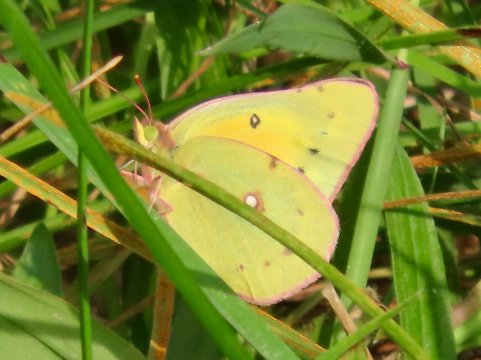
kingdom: Animalia
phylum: Arthropoda
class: Insecta
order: Lepidoptera
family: Pieridae
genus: Colias
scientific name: Colias eurytheme
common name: Orange Sulphur
